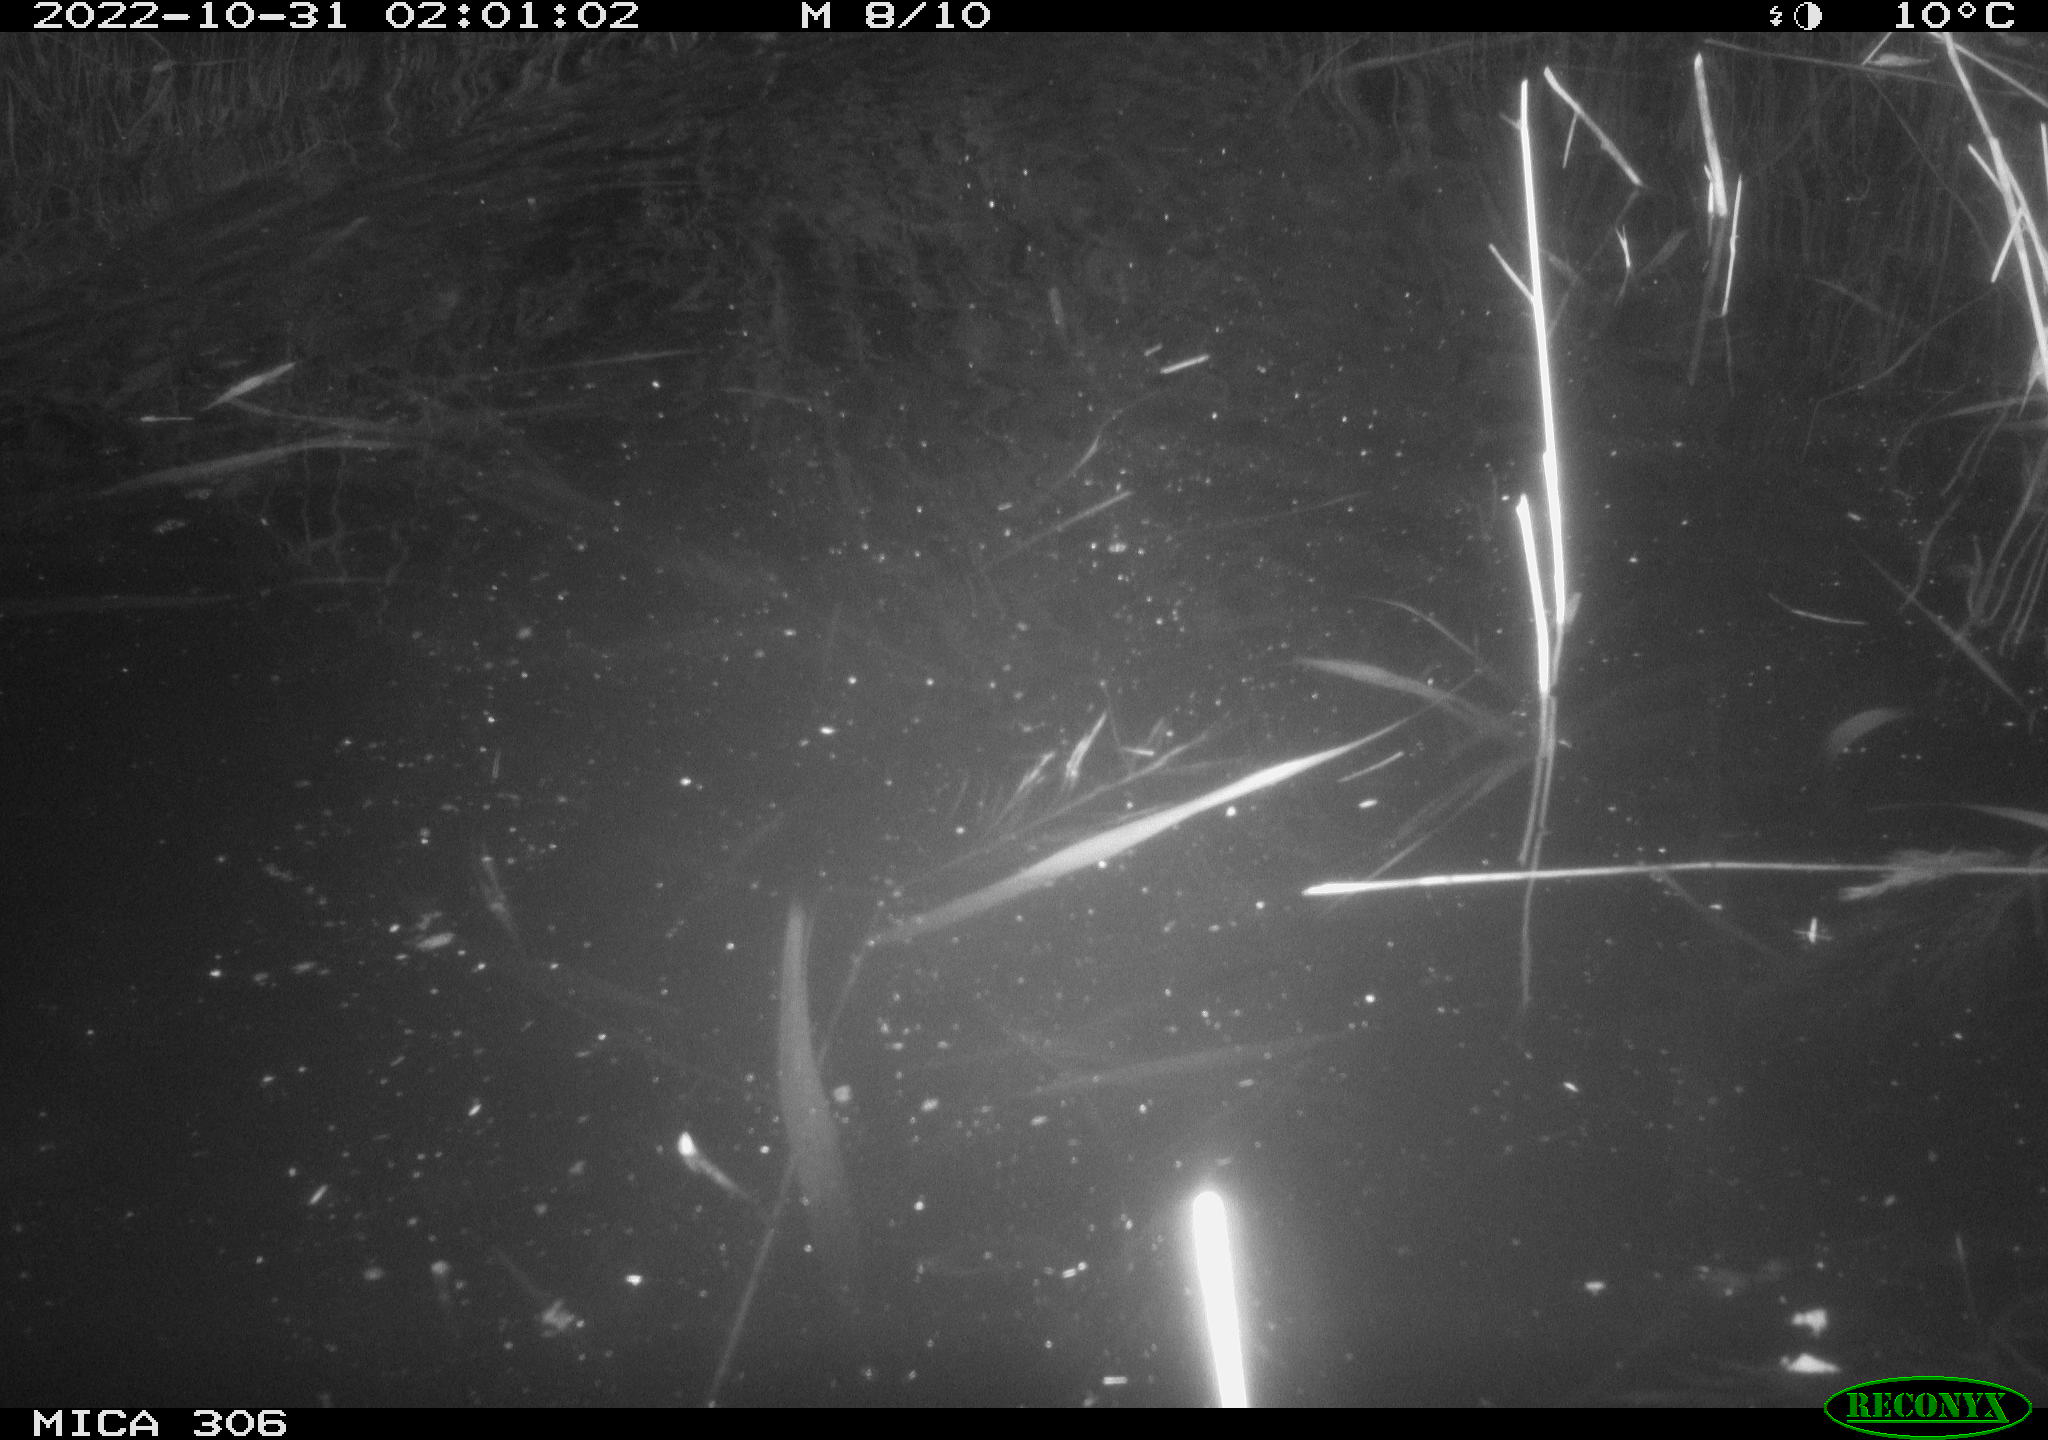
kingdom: Animalia
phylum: Chordata
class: Mammalia
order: Rodentia
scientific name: Rodentia
